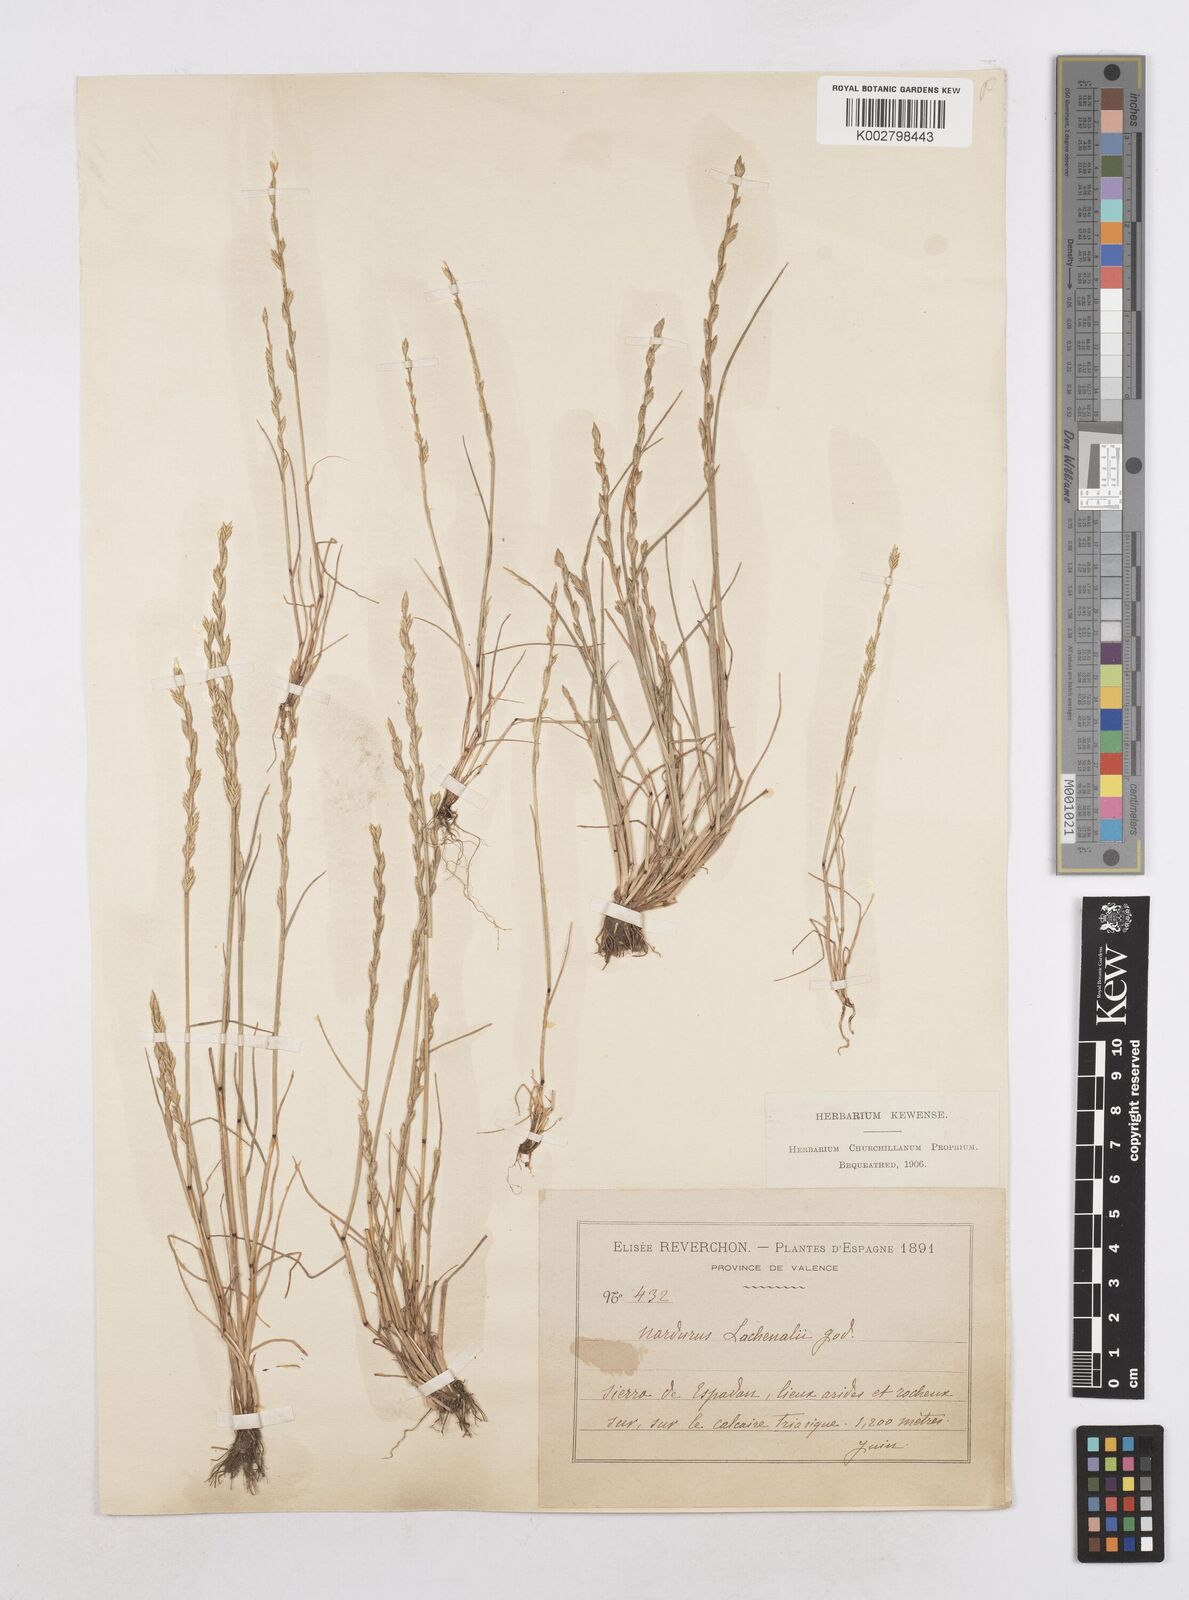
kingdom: Plantae
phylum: Tracheophyta
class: Liliopsida
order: Poales
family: Poaceae
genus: Festuca
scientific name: Festuca lachenalii
